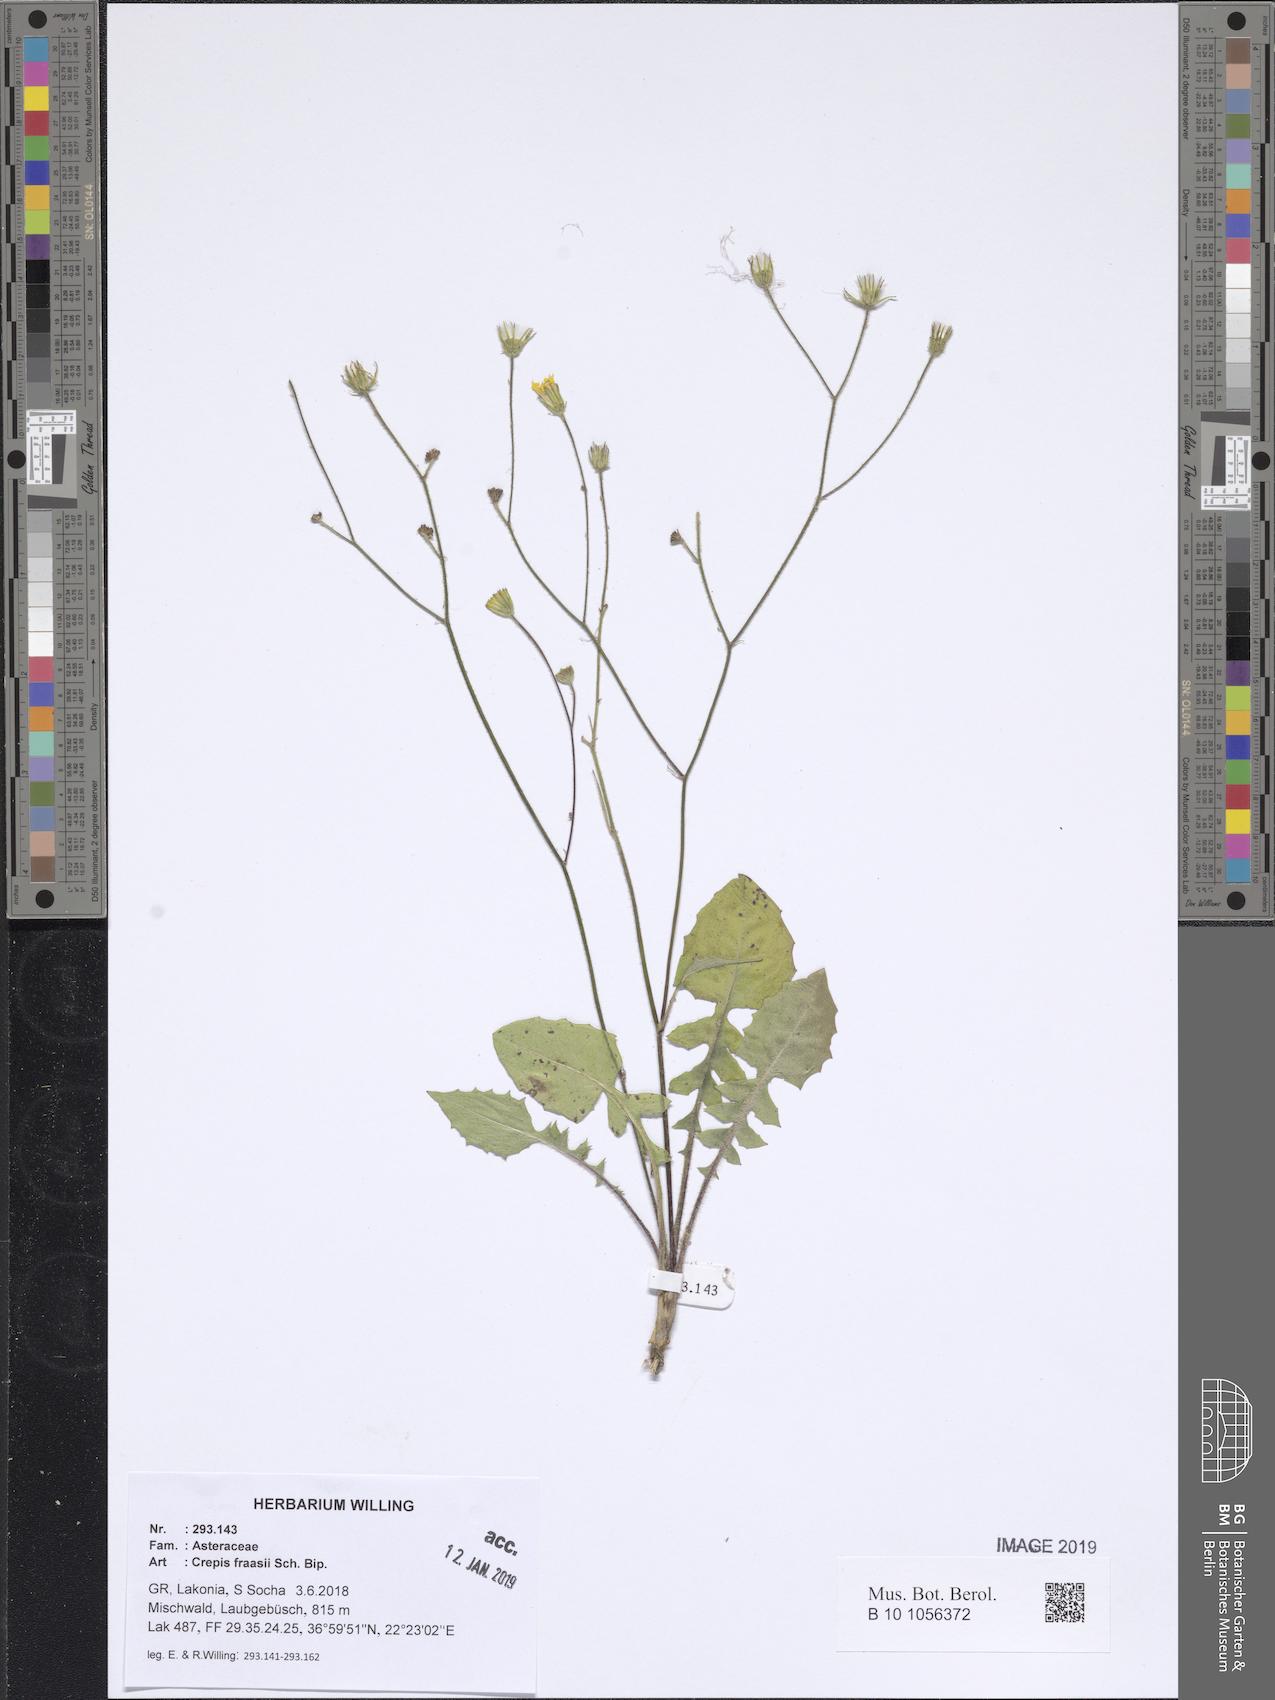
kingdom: Plantae
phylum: Tracheophyta
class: Magnoliopsida
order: Asterales
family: Asteraceae
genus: Crepis
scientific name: Crepis fraasii
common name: Hawk's-beard
